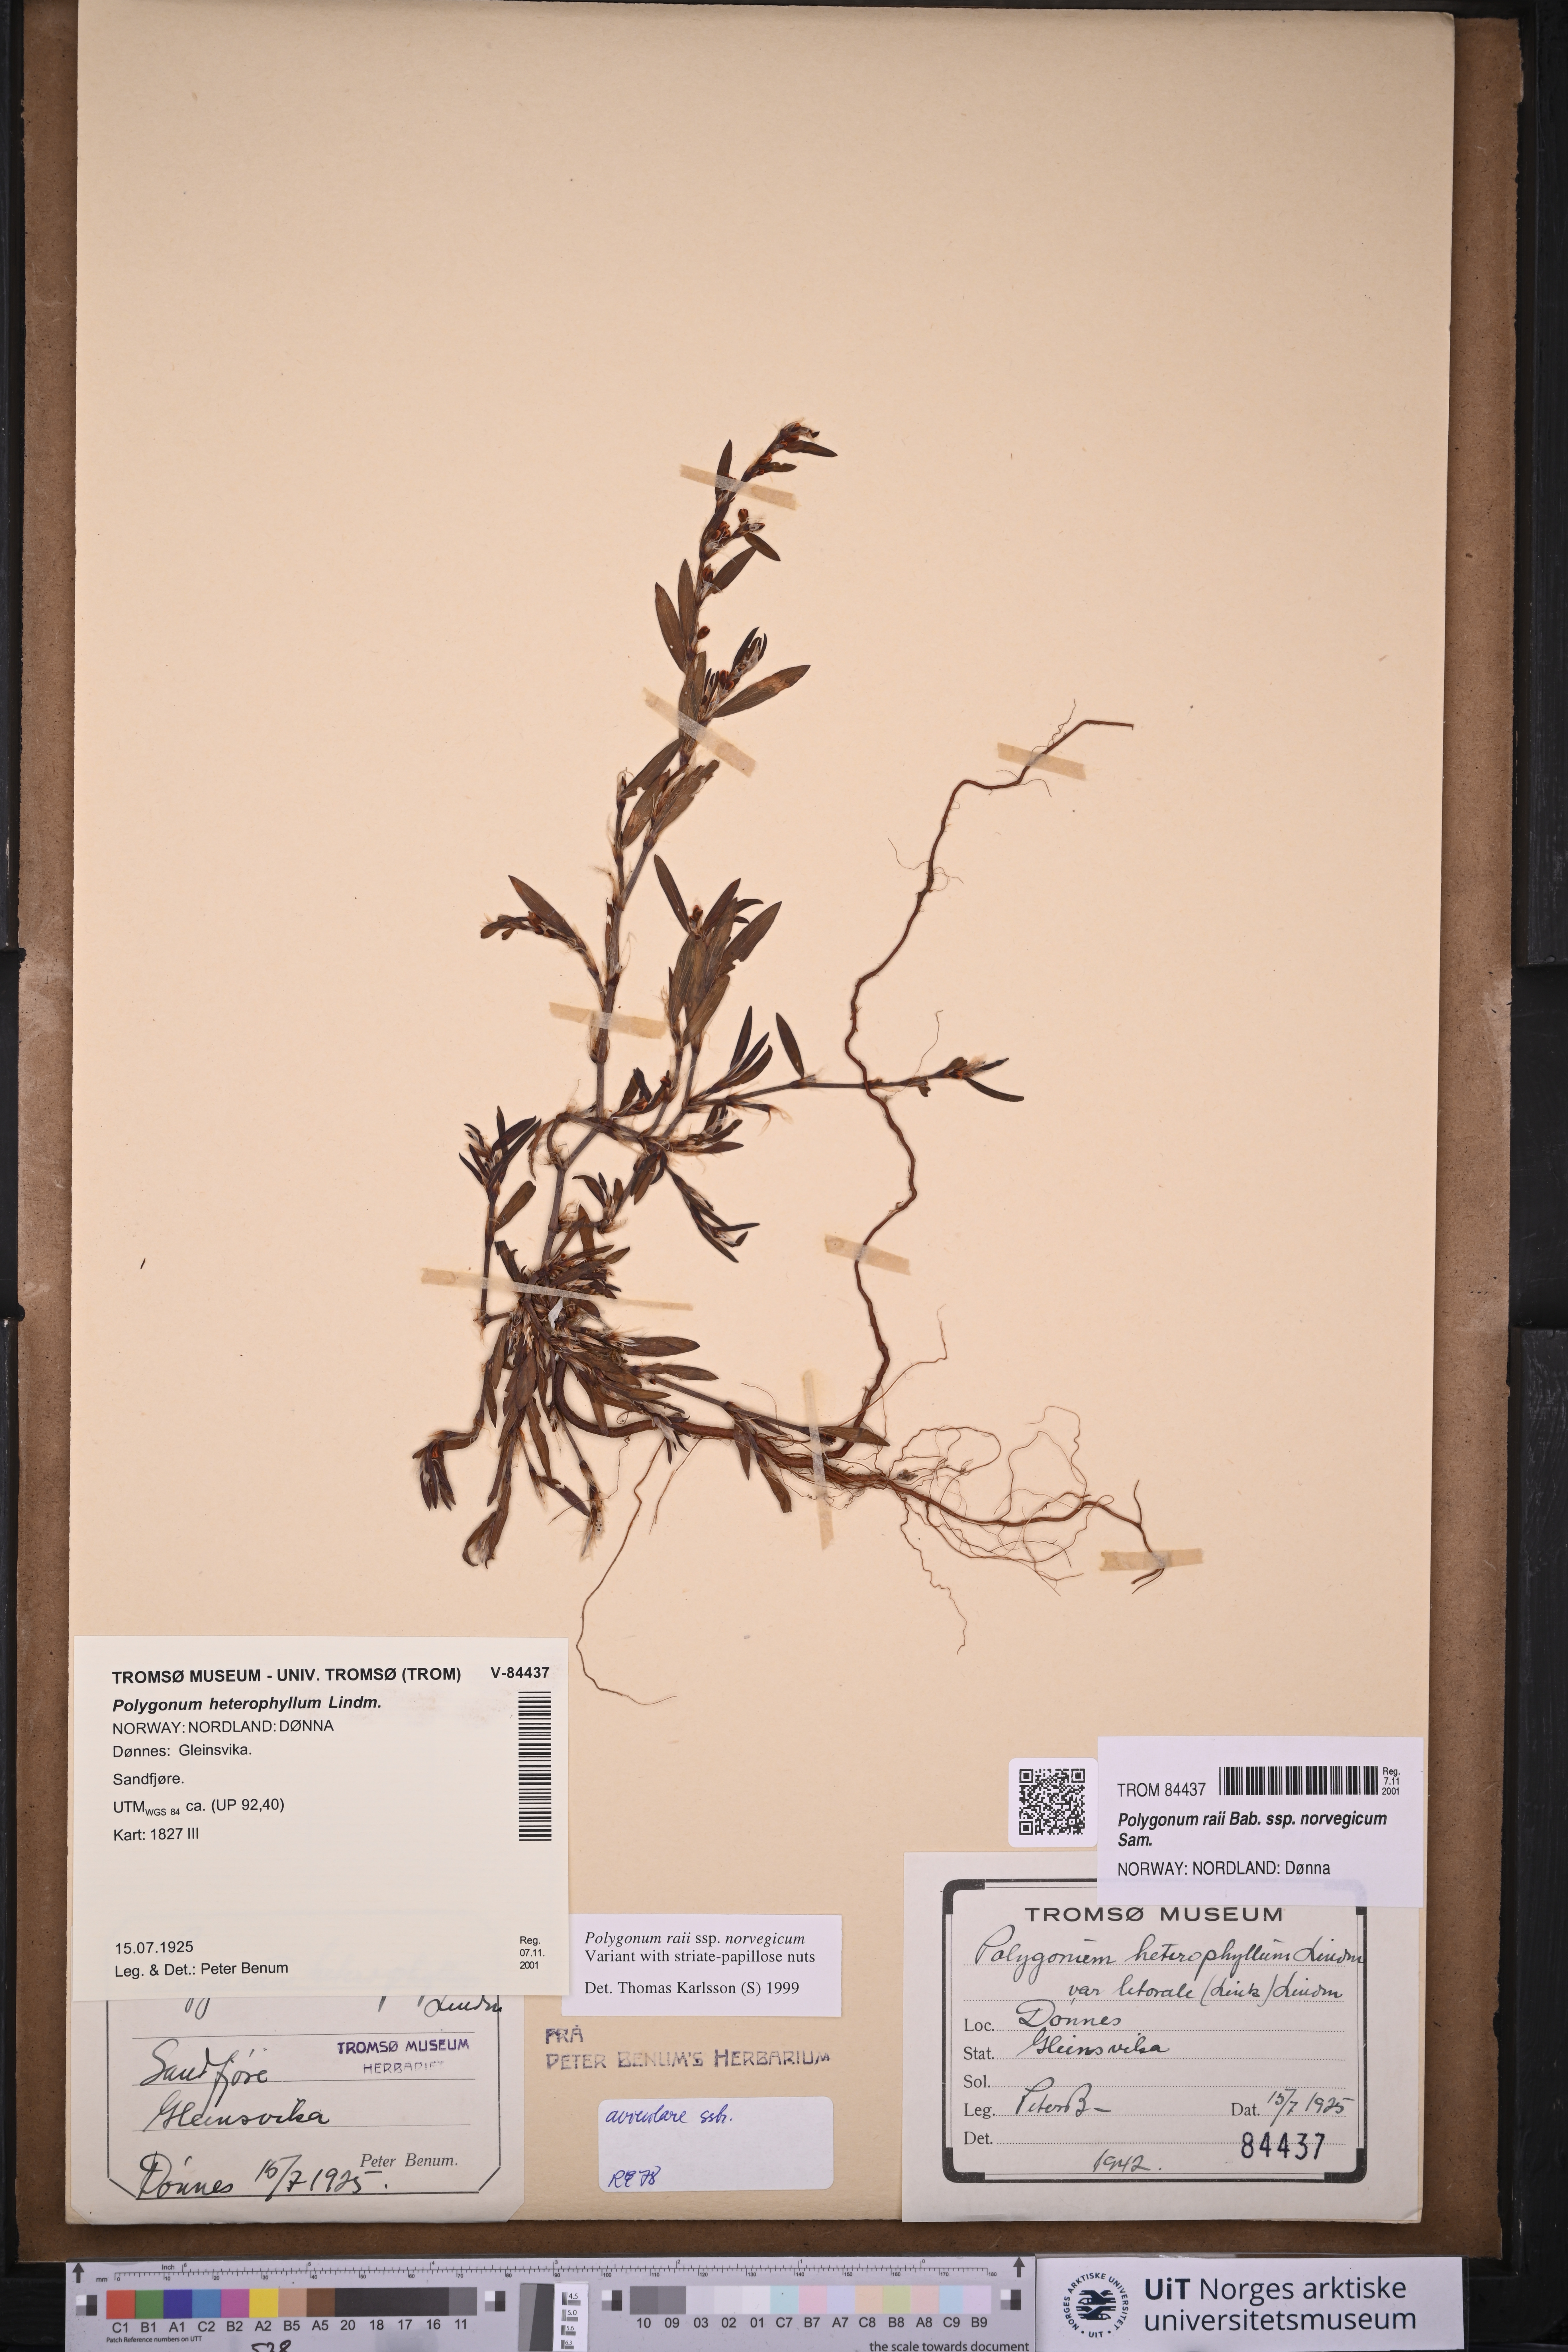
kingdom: Plantae
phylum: Tracheophyta
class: Magnoliopsida
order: Caryophyllales
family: Polygonaceae
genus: Polygonum
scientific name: Polygonum norvegicum
